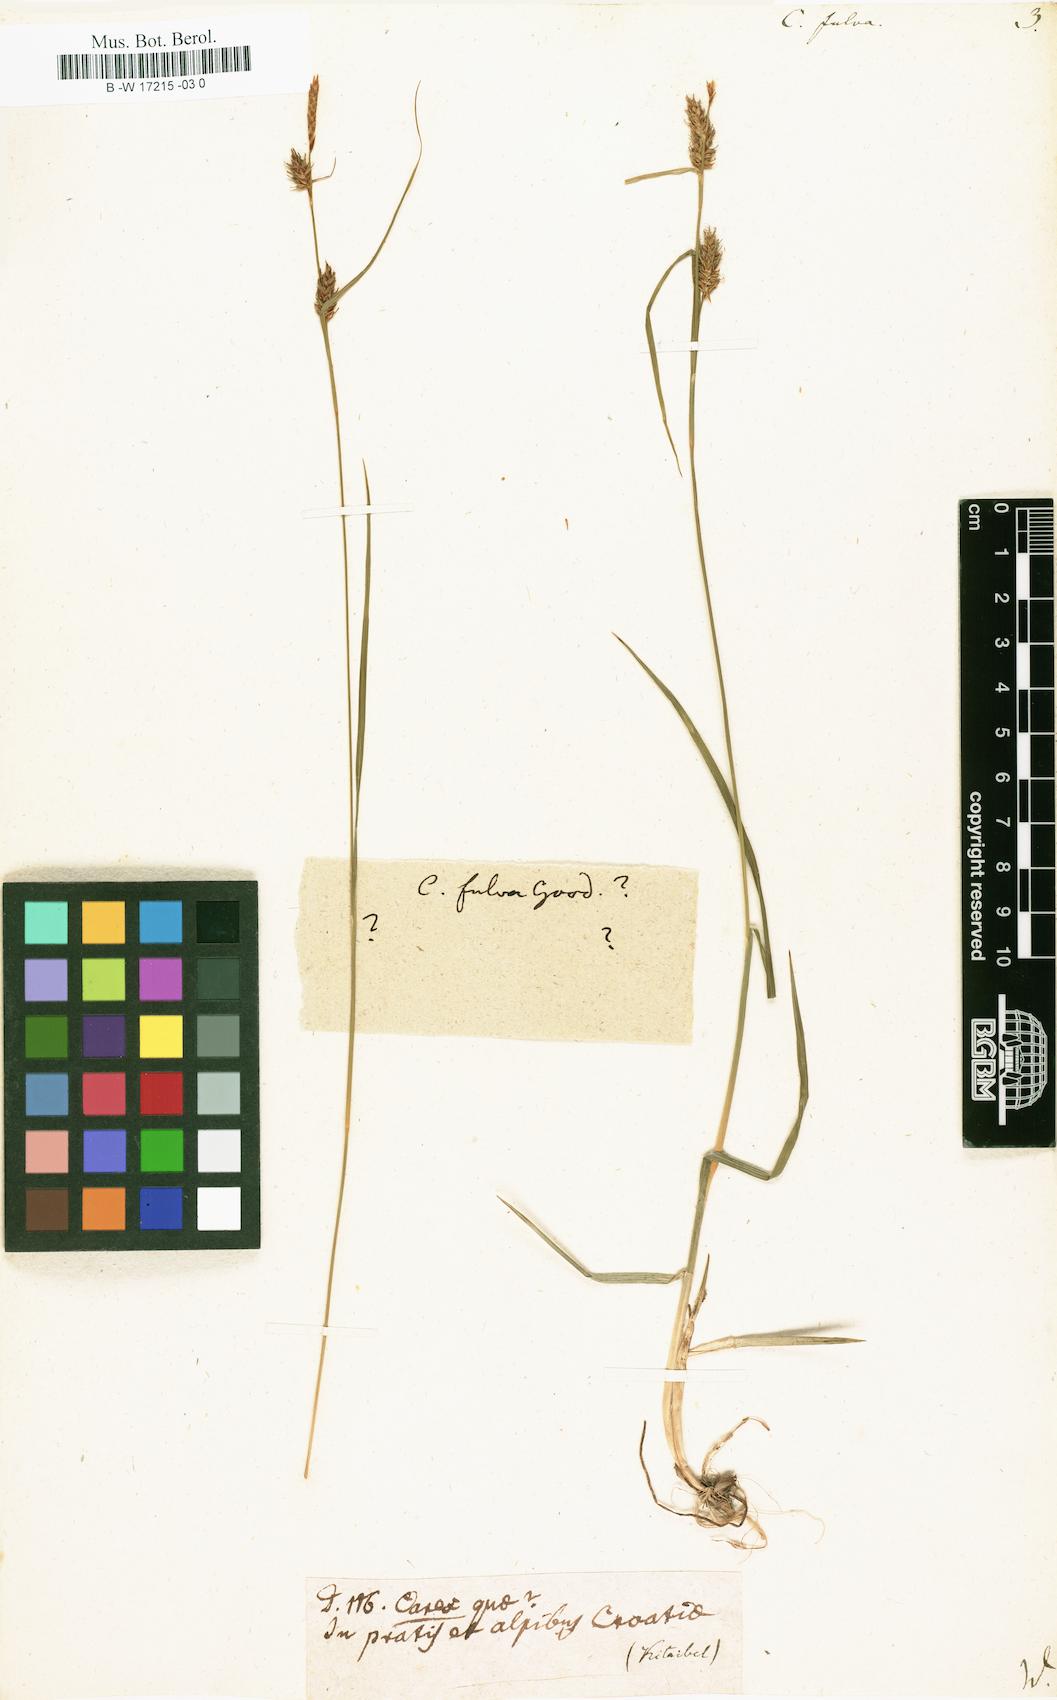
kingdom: Plantae
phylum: Tracheophyta
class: Liliopsida
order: Poales
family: Cyperaceae
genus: Carex
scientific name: Carex fulva
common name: Leutz's sedge
